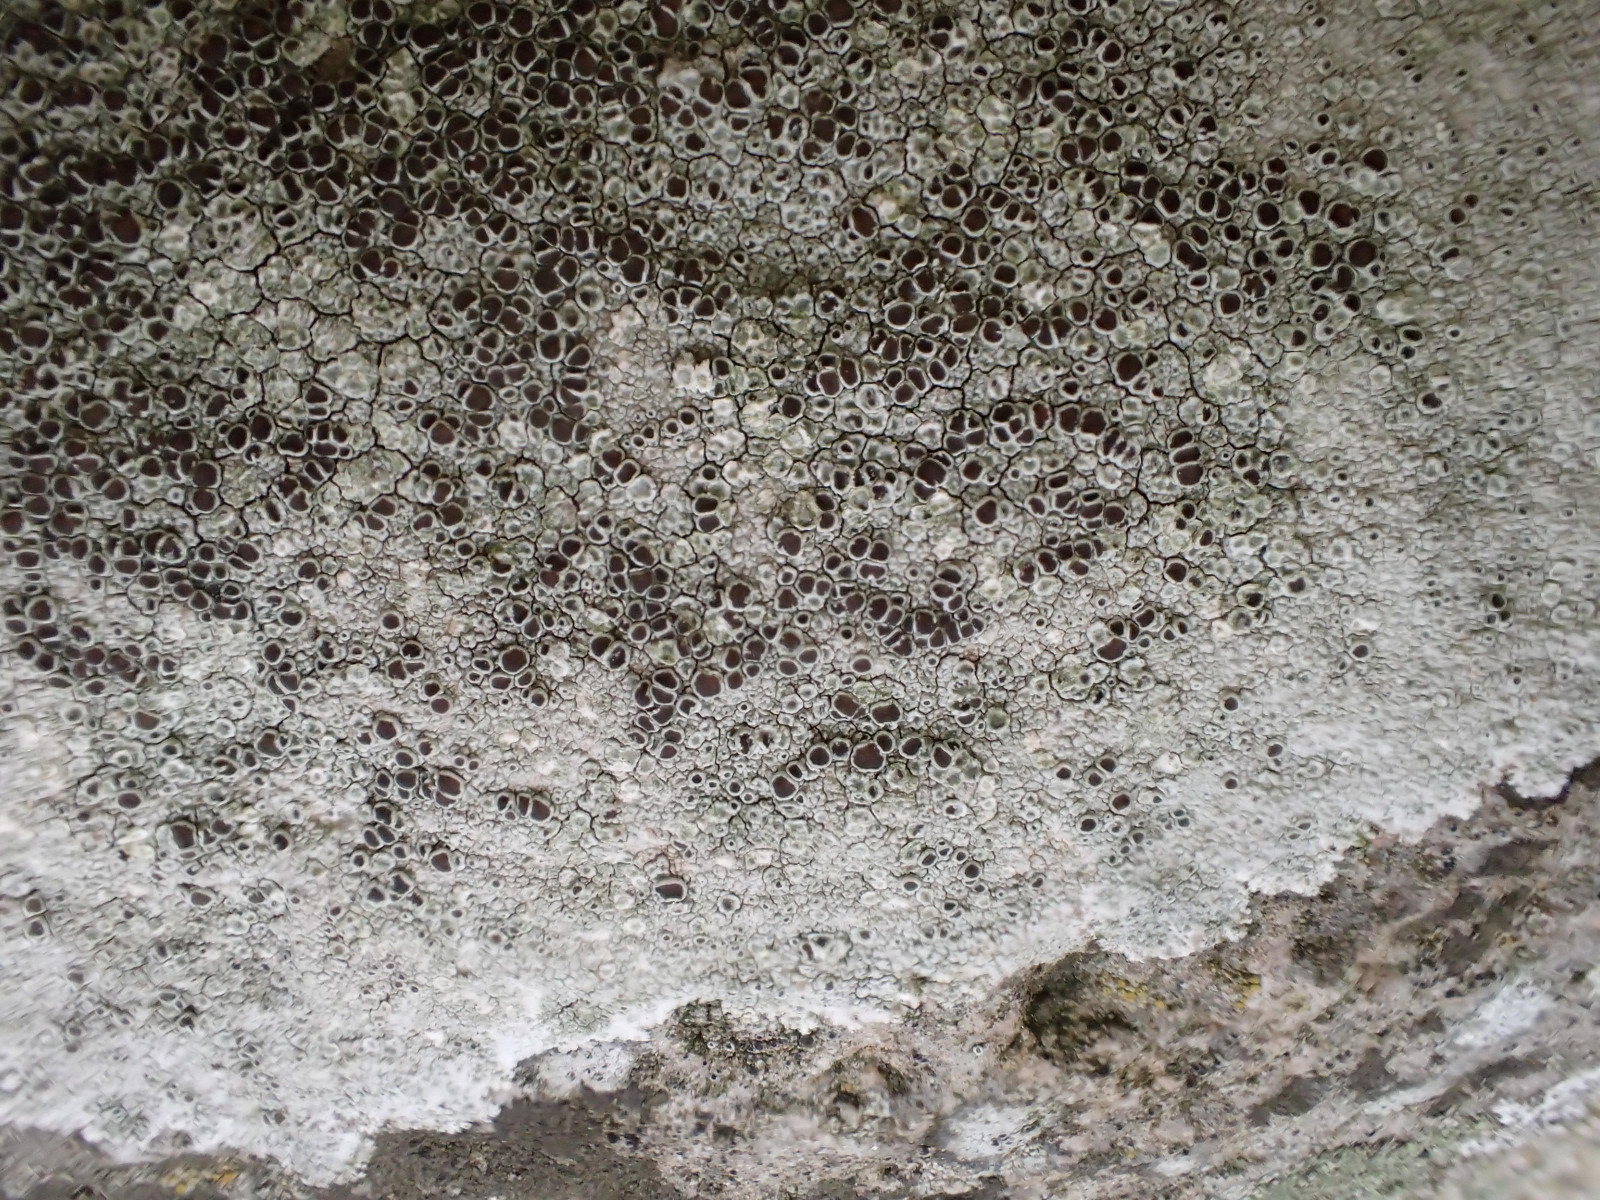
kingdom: Fungi
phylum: Ascomycota
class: Lecanoromycetes
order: Lecanorales
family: Lecanoraceae
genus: Lecanora
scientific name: Lecanora campestris
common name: mur-kantskivelav
